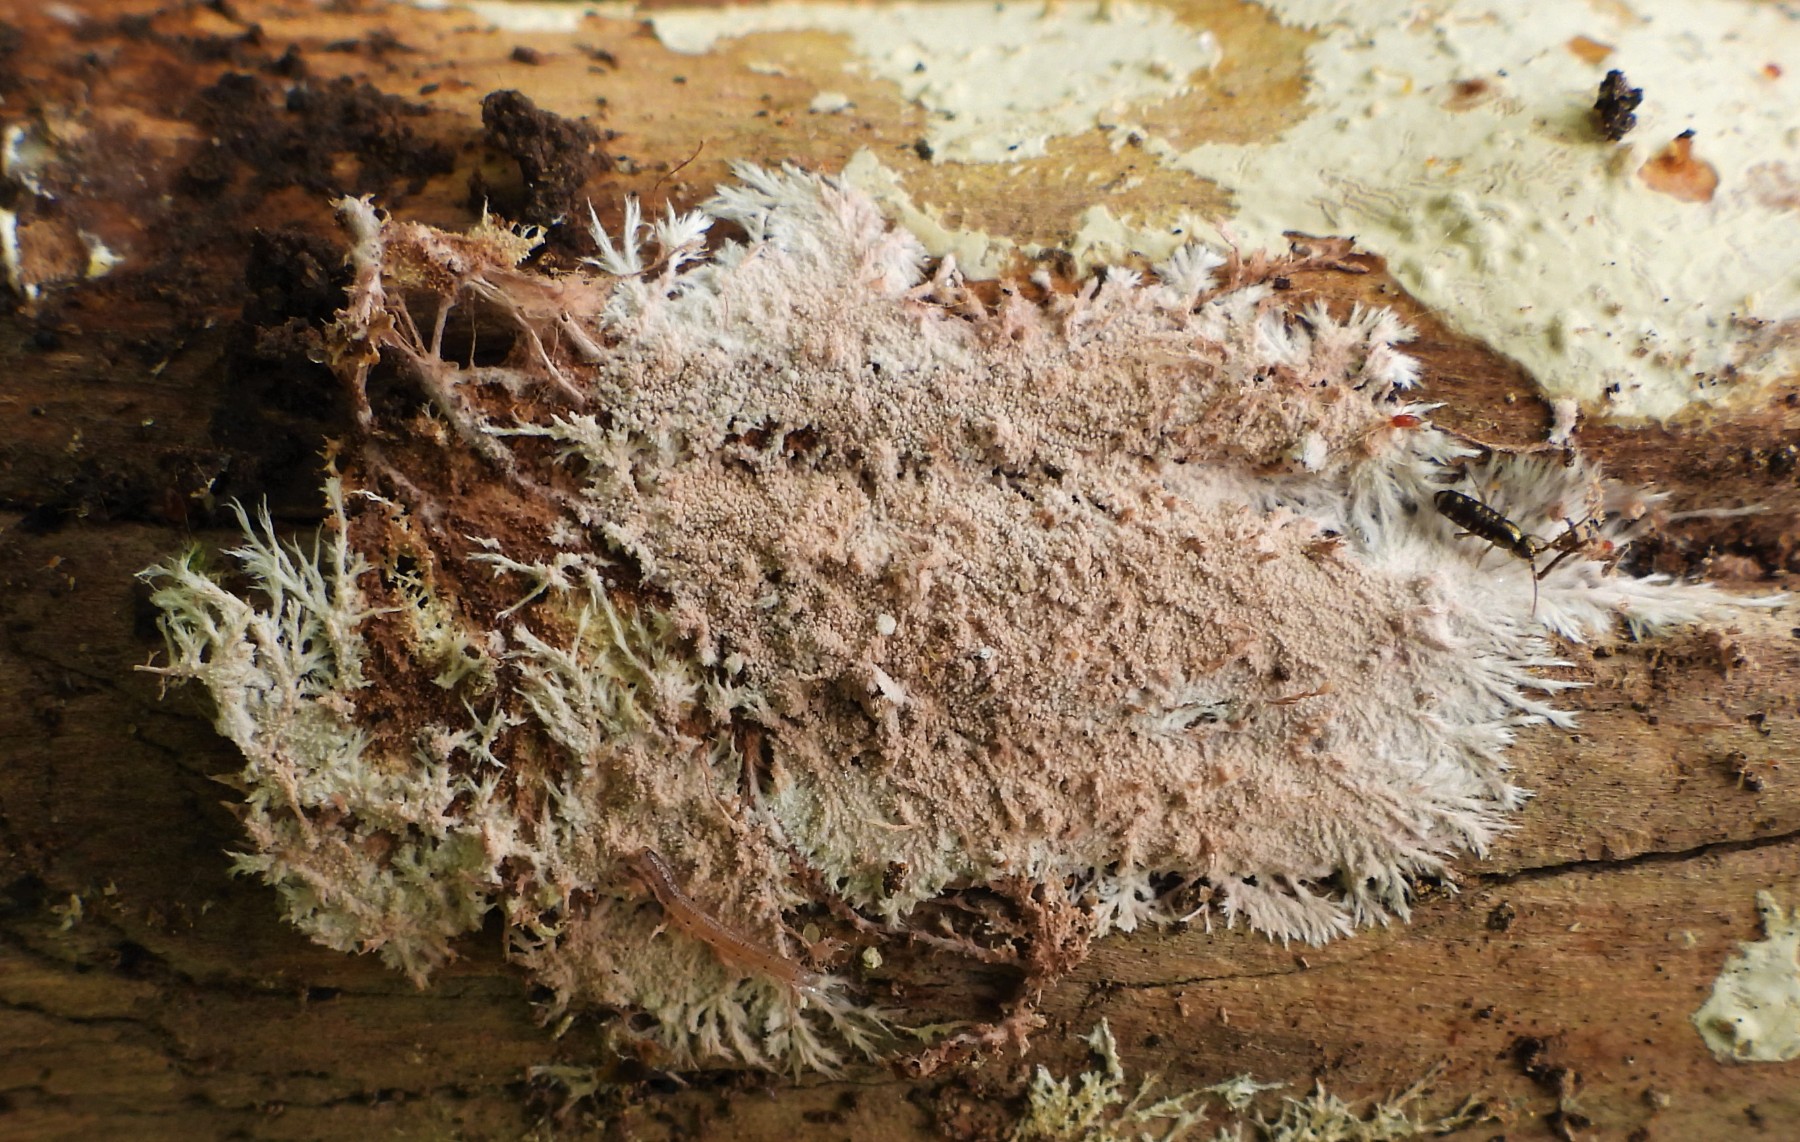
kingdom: Fungi
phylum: Basidiomycota
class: Agaricomycetes
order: Polyporales
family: Steccherinaceae
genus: Steccherinum
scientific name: Steccherinum fimbriatum
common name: trådet skønpig
